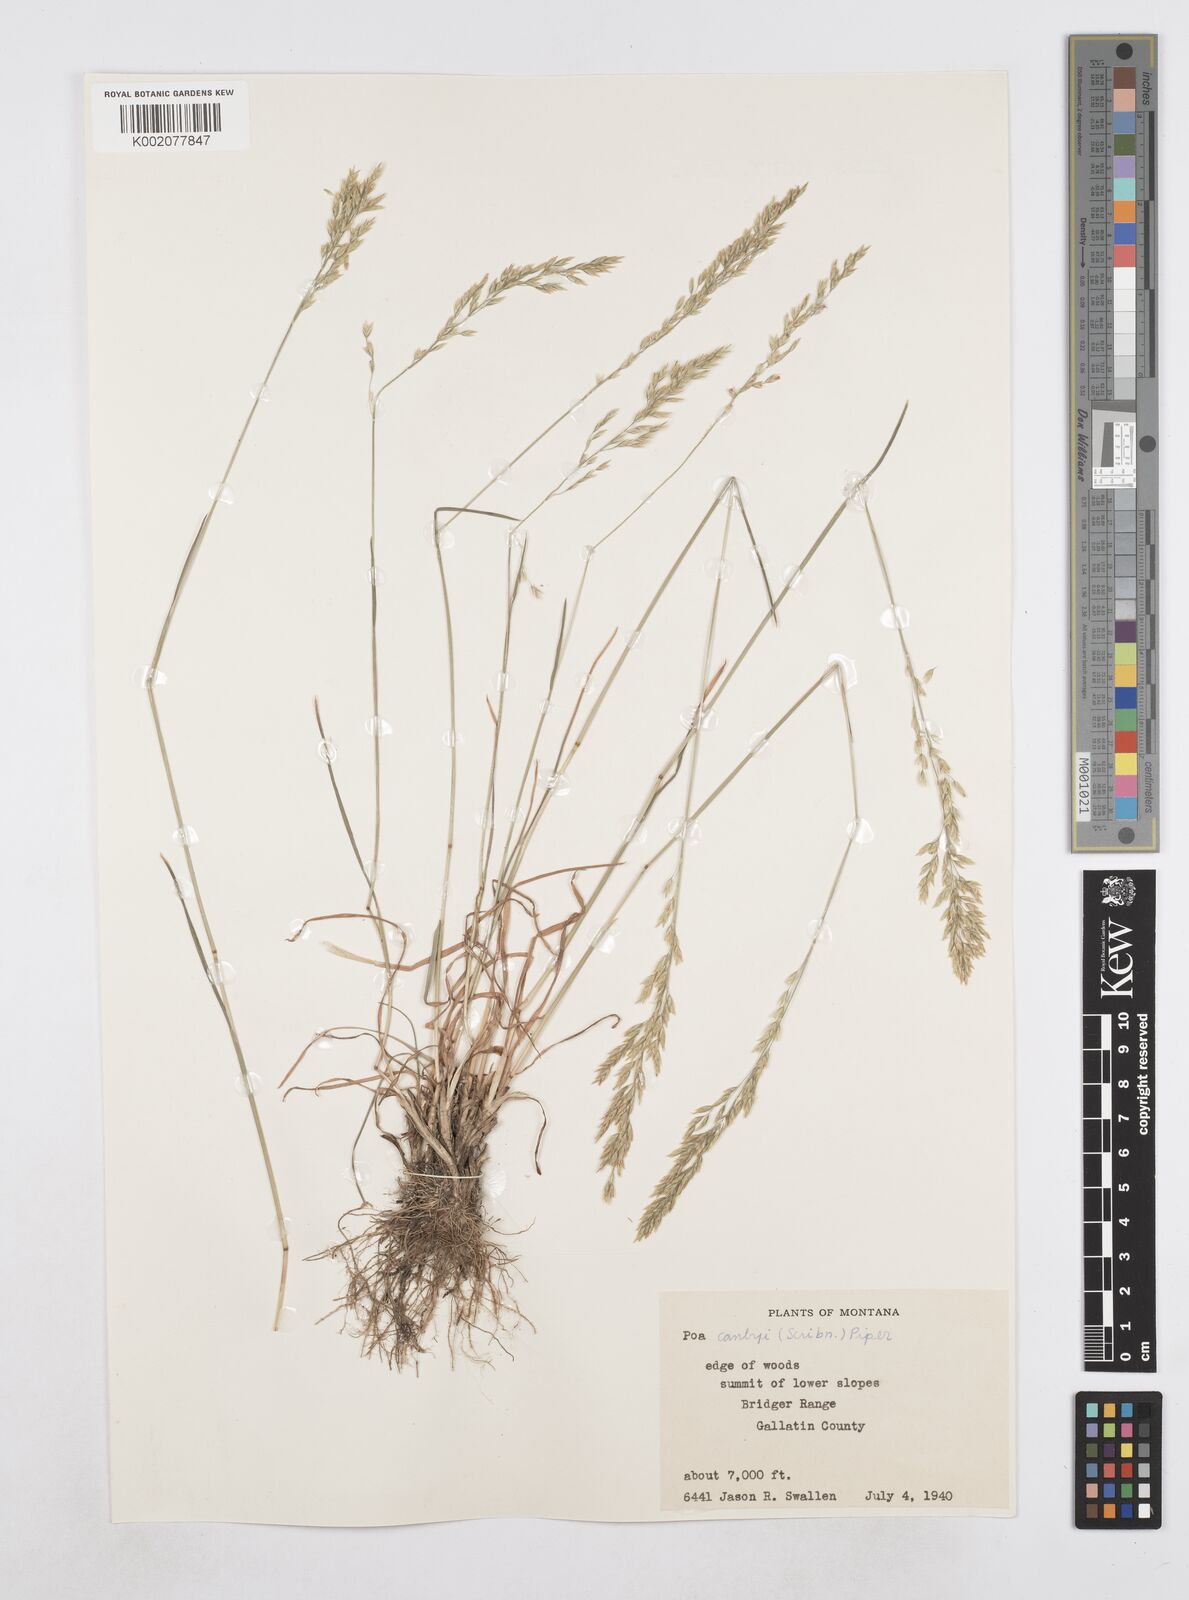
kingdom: Plantae
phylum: Tracheophyta
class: Liliopsida
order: Poales
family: Poaceae
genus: Poa
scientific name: Poa secunda
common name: Sandberg bluegrass
